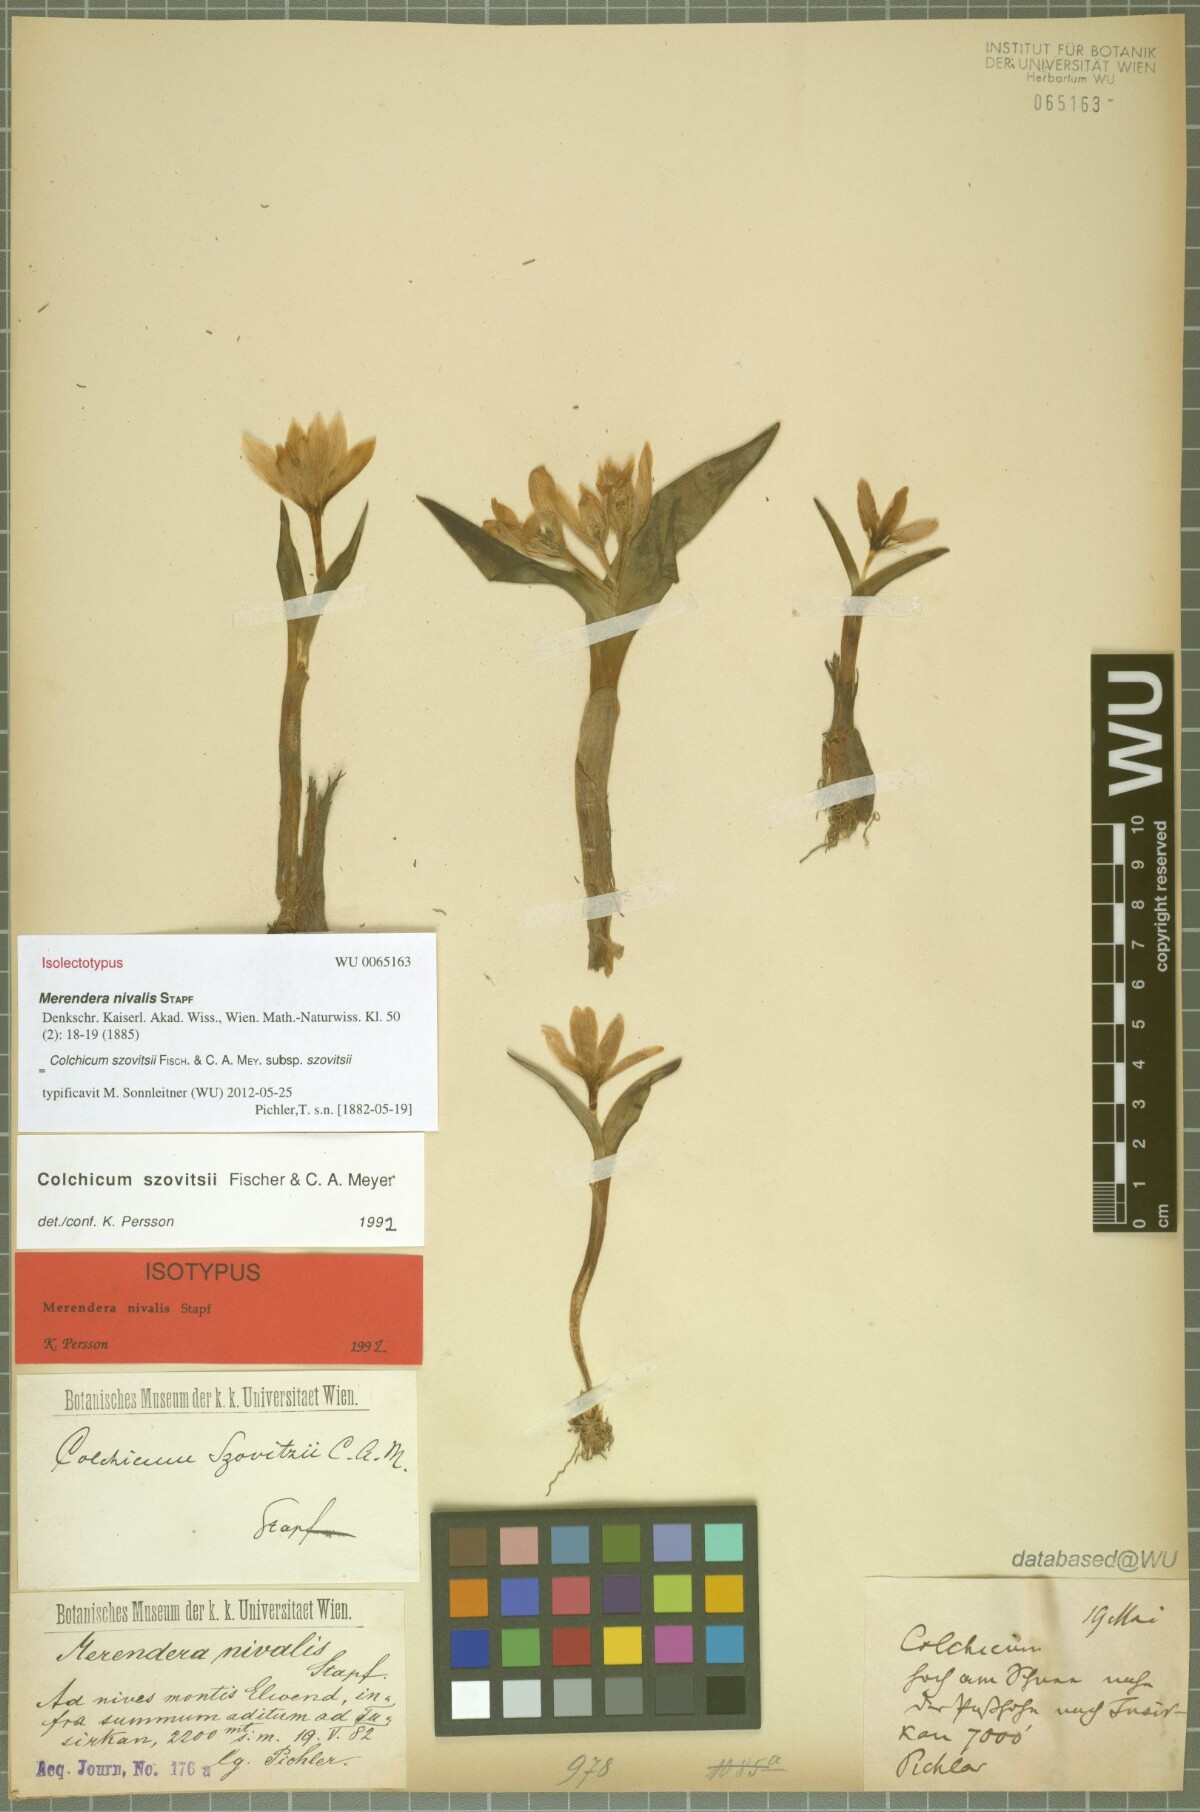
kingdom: Plantae
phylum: Tracheophyta
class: Liliopsida
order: Liliales
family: Colchicaceae
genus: Colchicum
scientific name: Colchicum szovitsii
